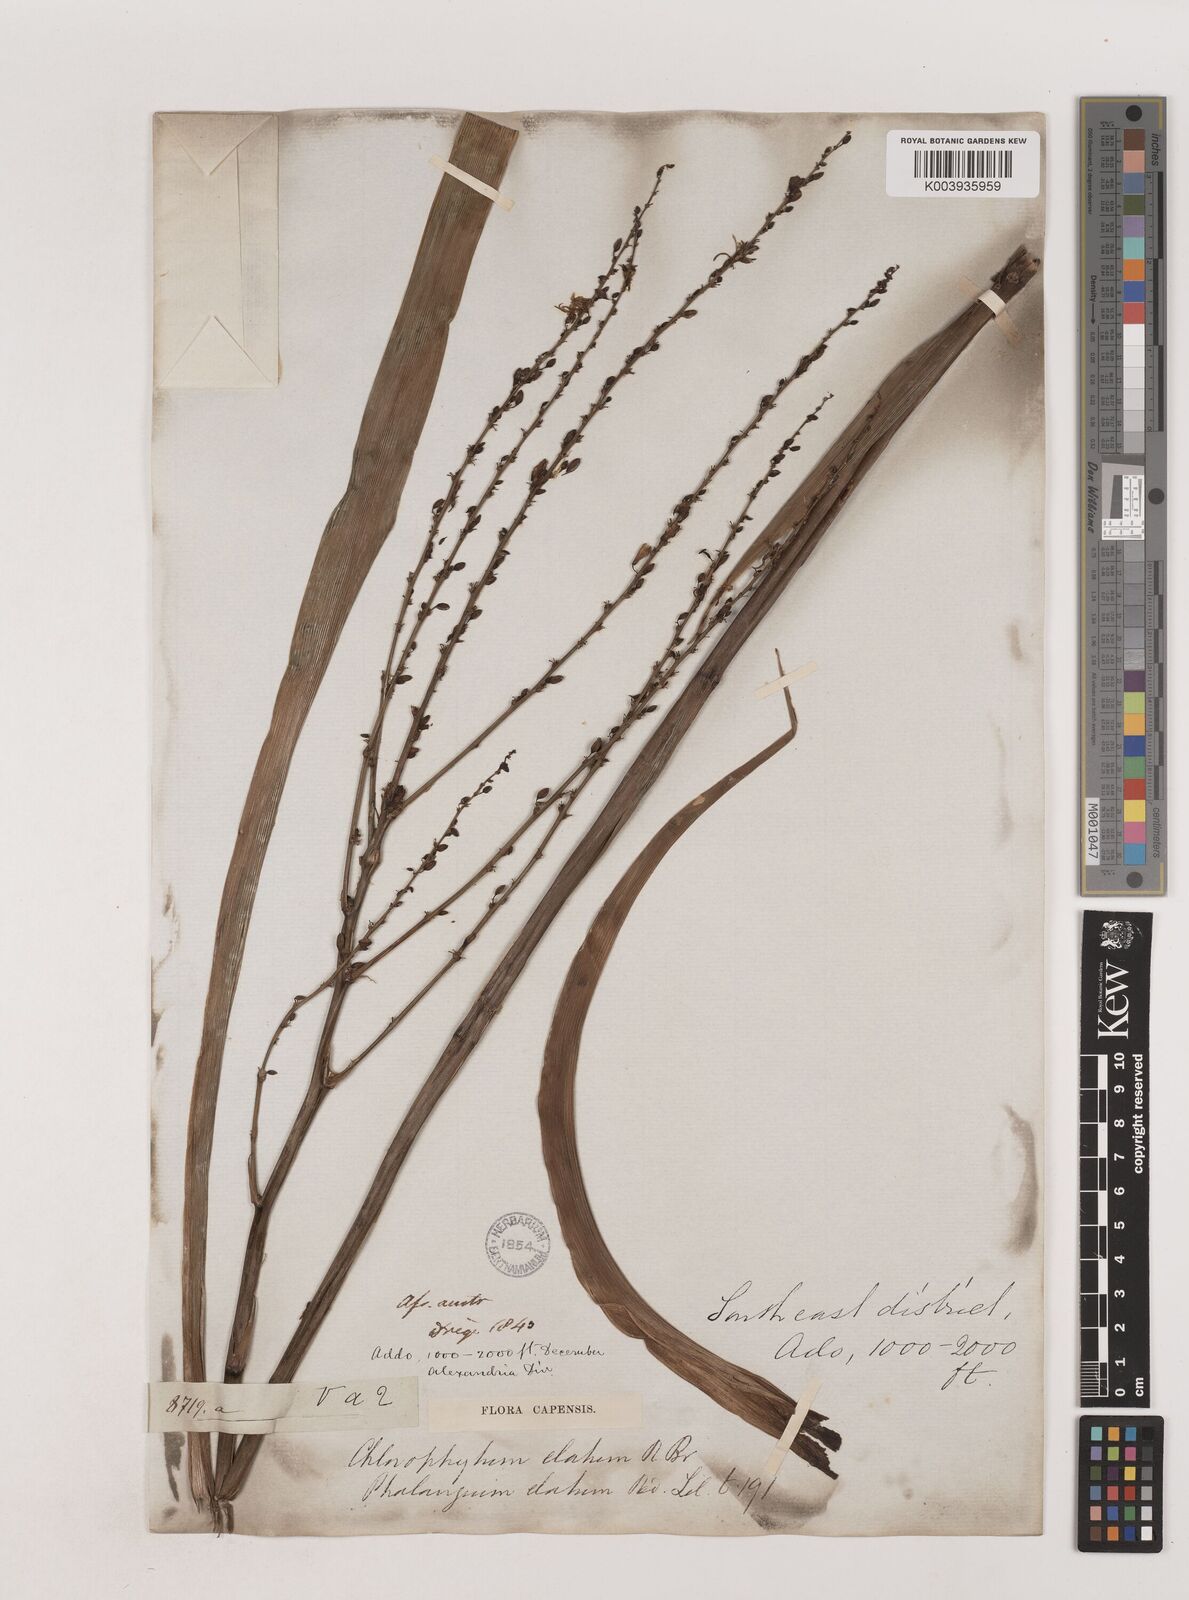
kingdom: Plantae
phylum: Tracheophyta
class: Liliopsida
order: Asparagales
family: Asparagaceae
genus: Chlorophytum
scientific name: Chlorophytum capense
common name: Bracketplant
